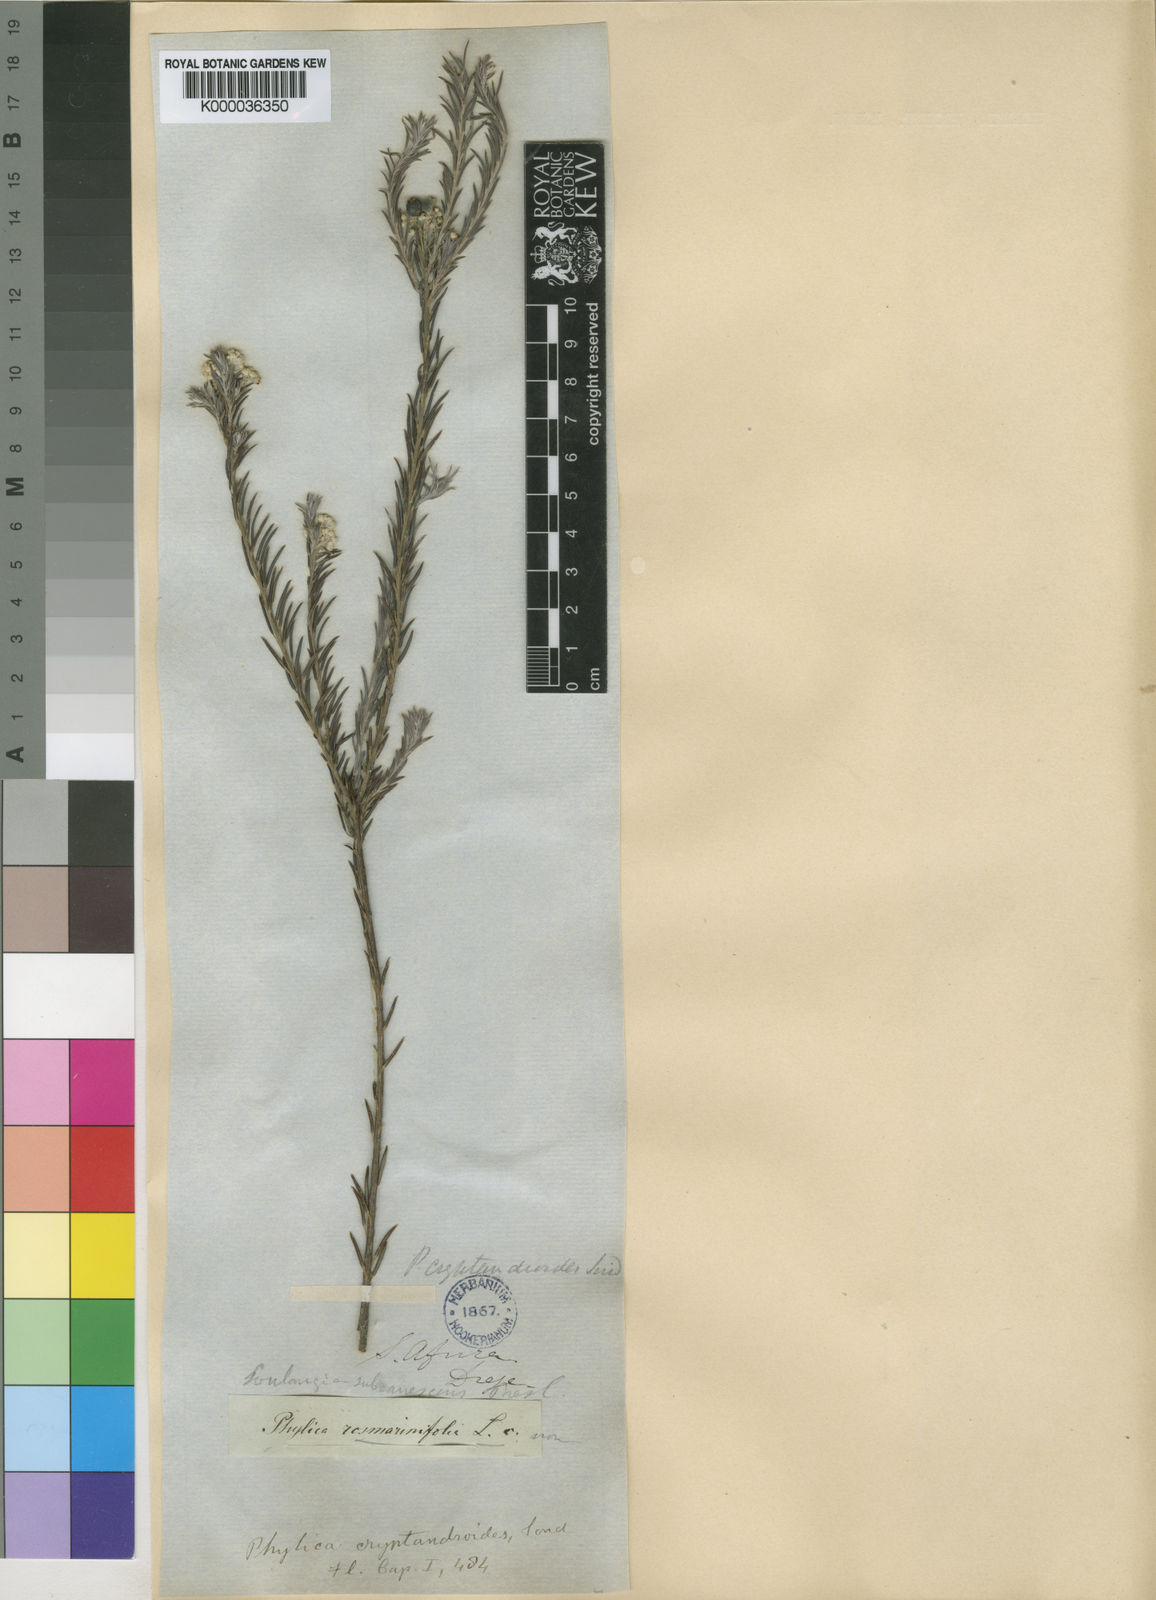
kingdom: Plantae
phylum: Tracheophyta
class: Magnoliopsida
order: Rosales
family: Rhamnaceae
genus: Phylica
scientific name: Phylica cryptandroides
